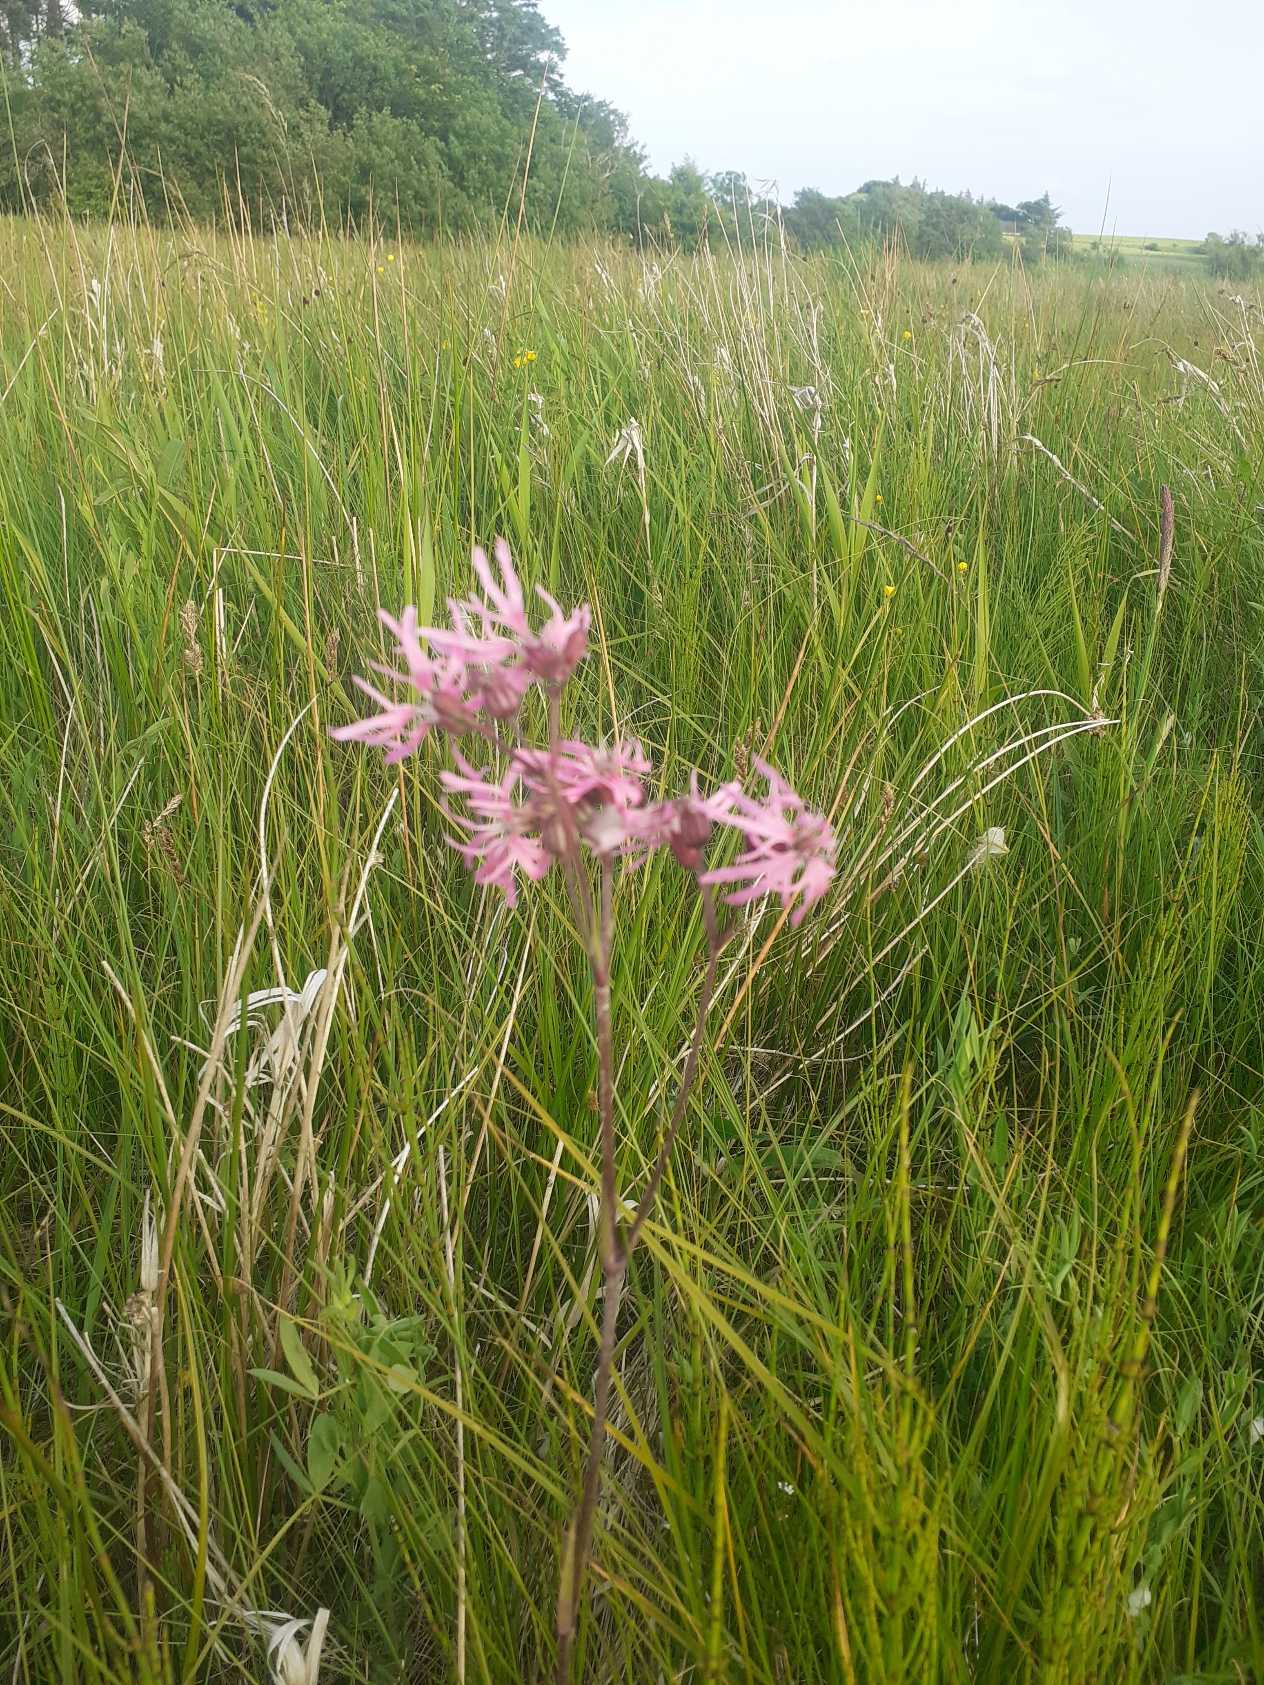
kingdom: Plantae
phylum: Tracheophyta
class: Magnoliopsida
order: Caryophyllales
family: Caryophyllaceae
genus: Silene
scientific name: Silene flos-cuculi
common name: Trævlekrone
